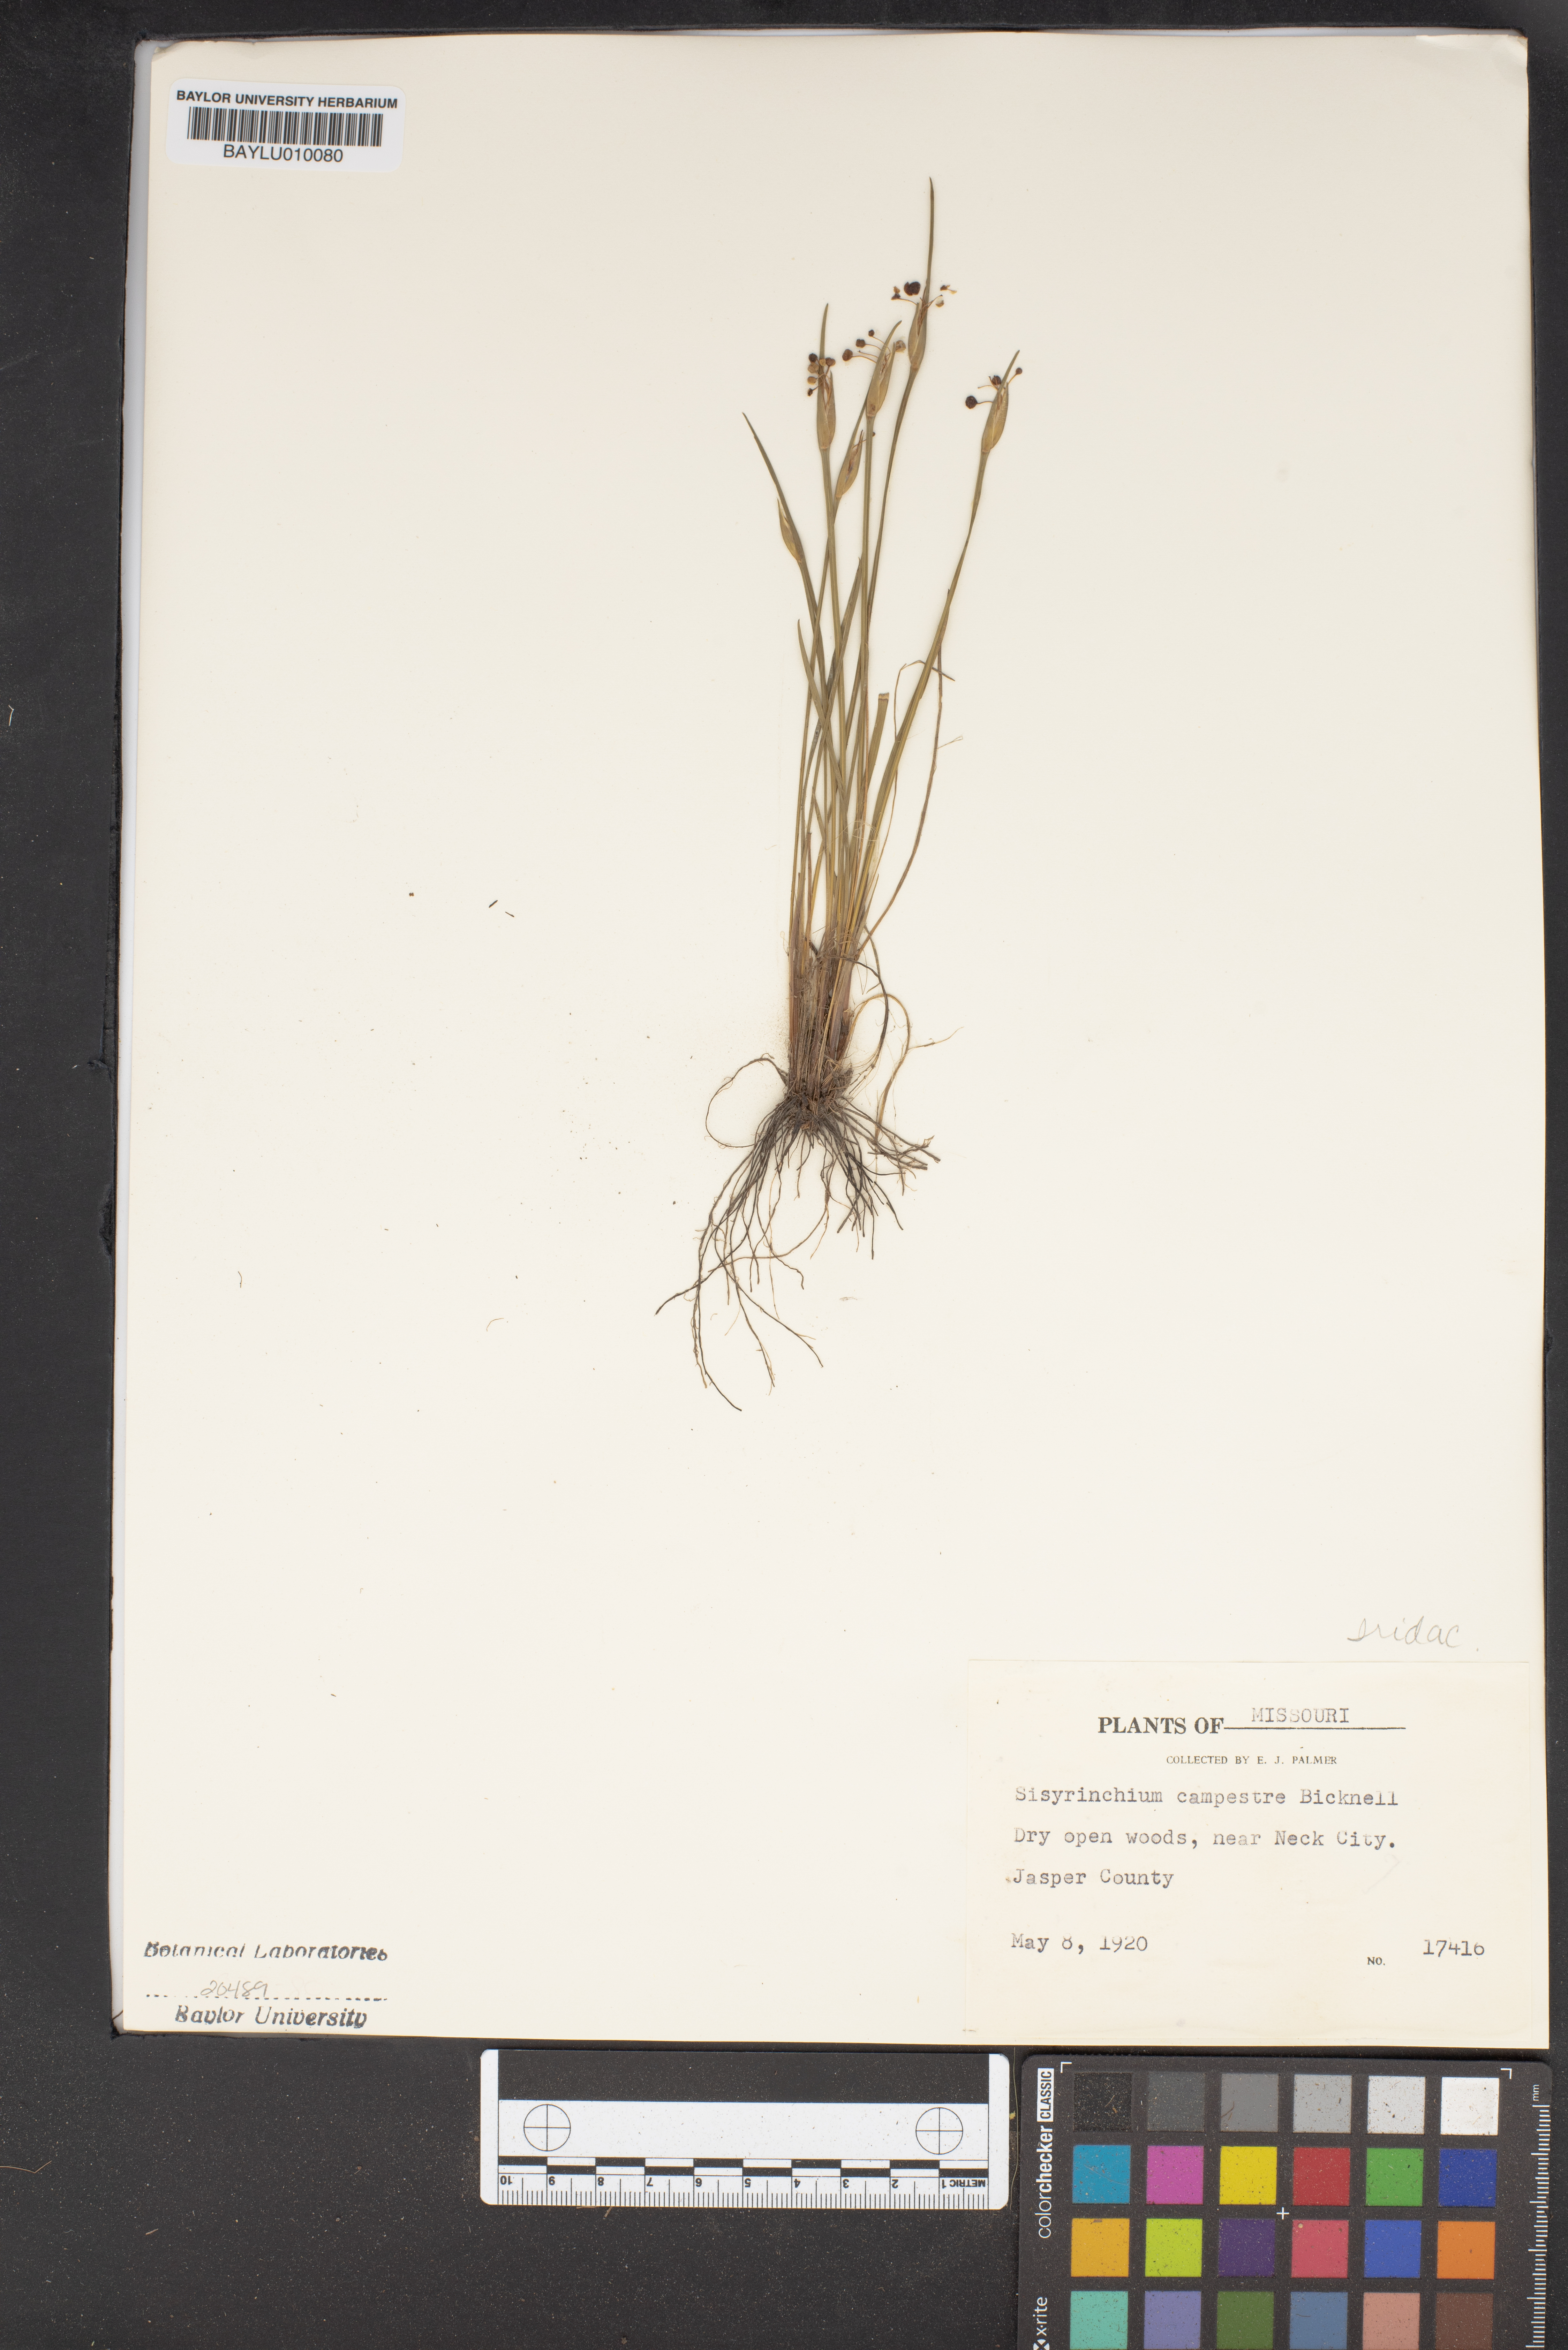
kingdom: Plantae
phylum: Tracheophyta
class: Liliopsida
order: Asparagales
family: Iridaceae
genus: Sisyrinchium
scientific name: Sisyrinchium campestre
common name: Prairie blue-eyed-grass
